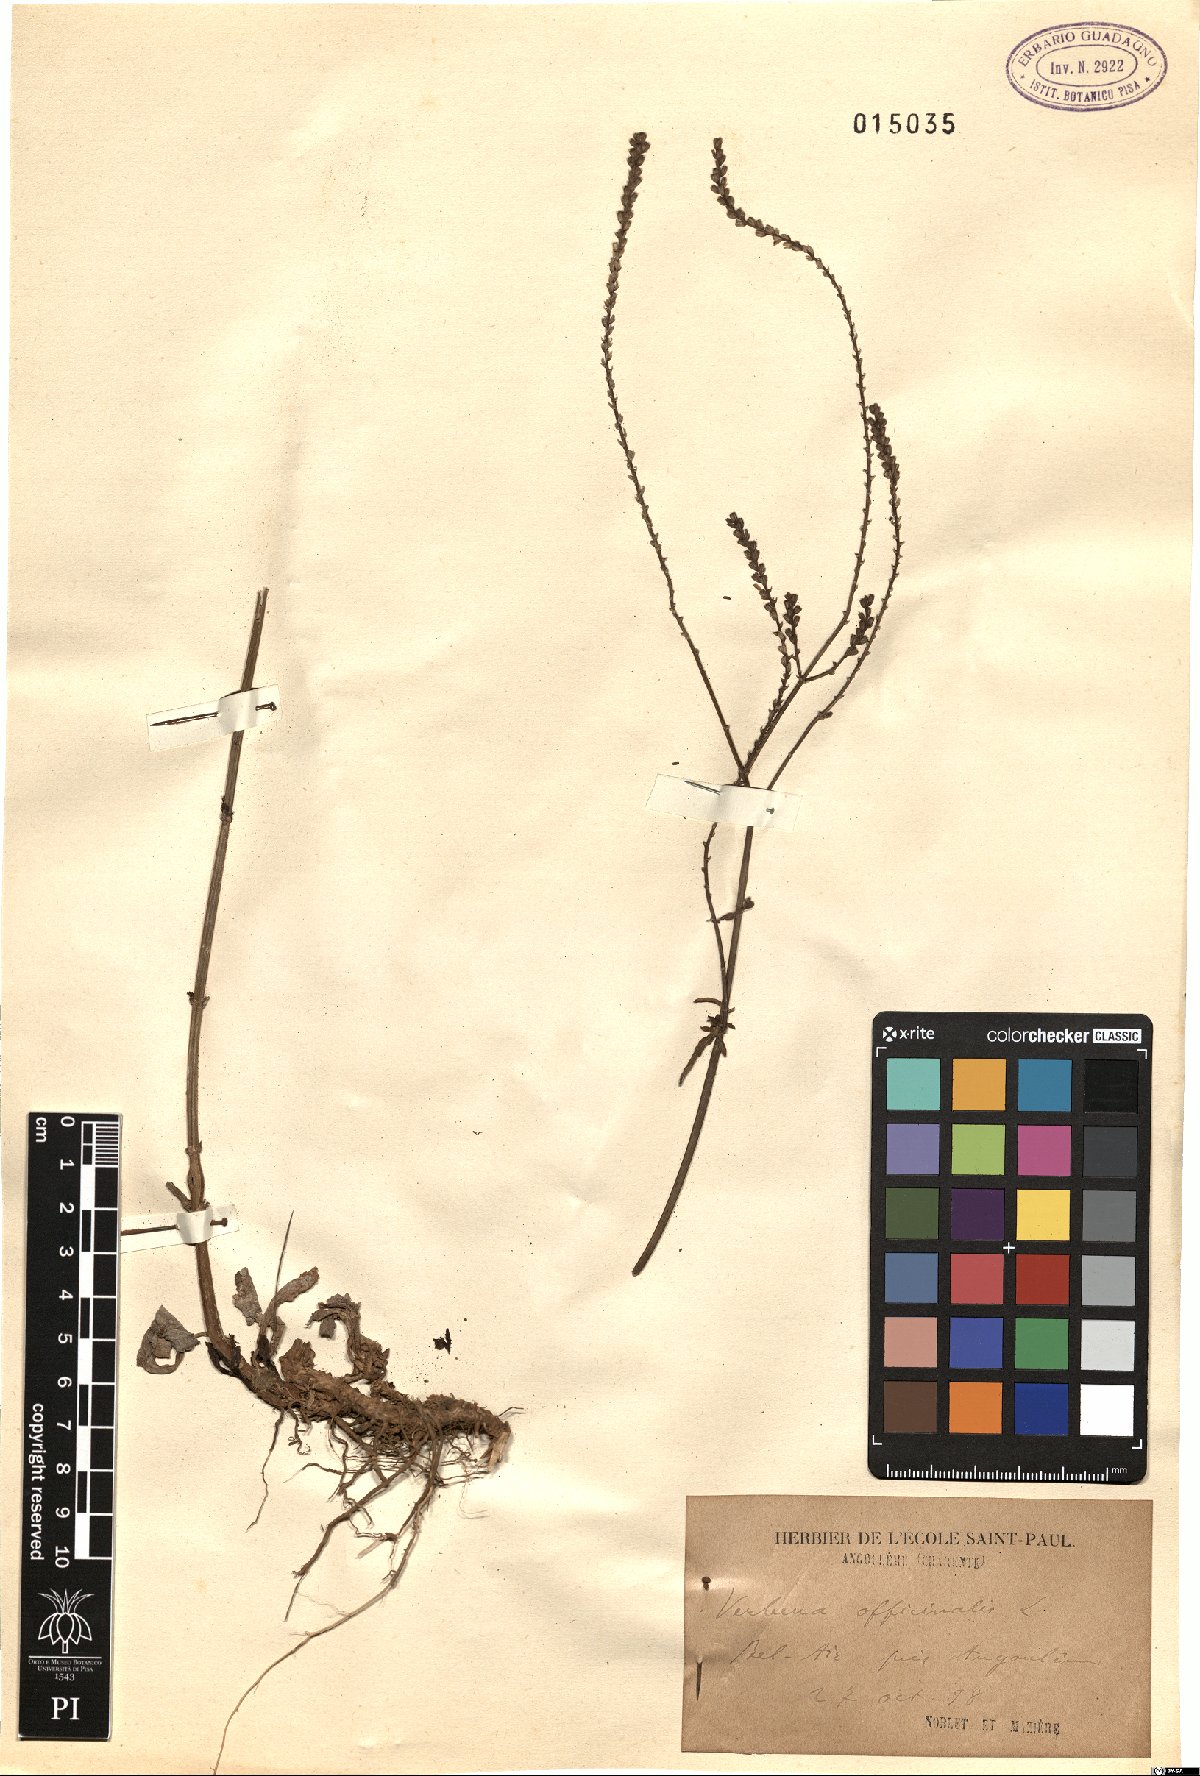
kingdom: Plantae
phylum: Tracheophyta
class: Magnoliopsida
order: Lamiales
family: Verbenaceae
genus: Verbena
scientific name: Verbena officinalis
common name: Vervain
